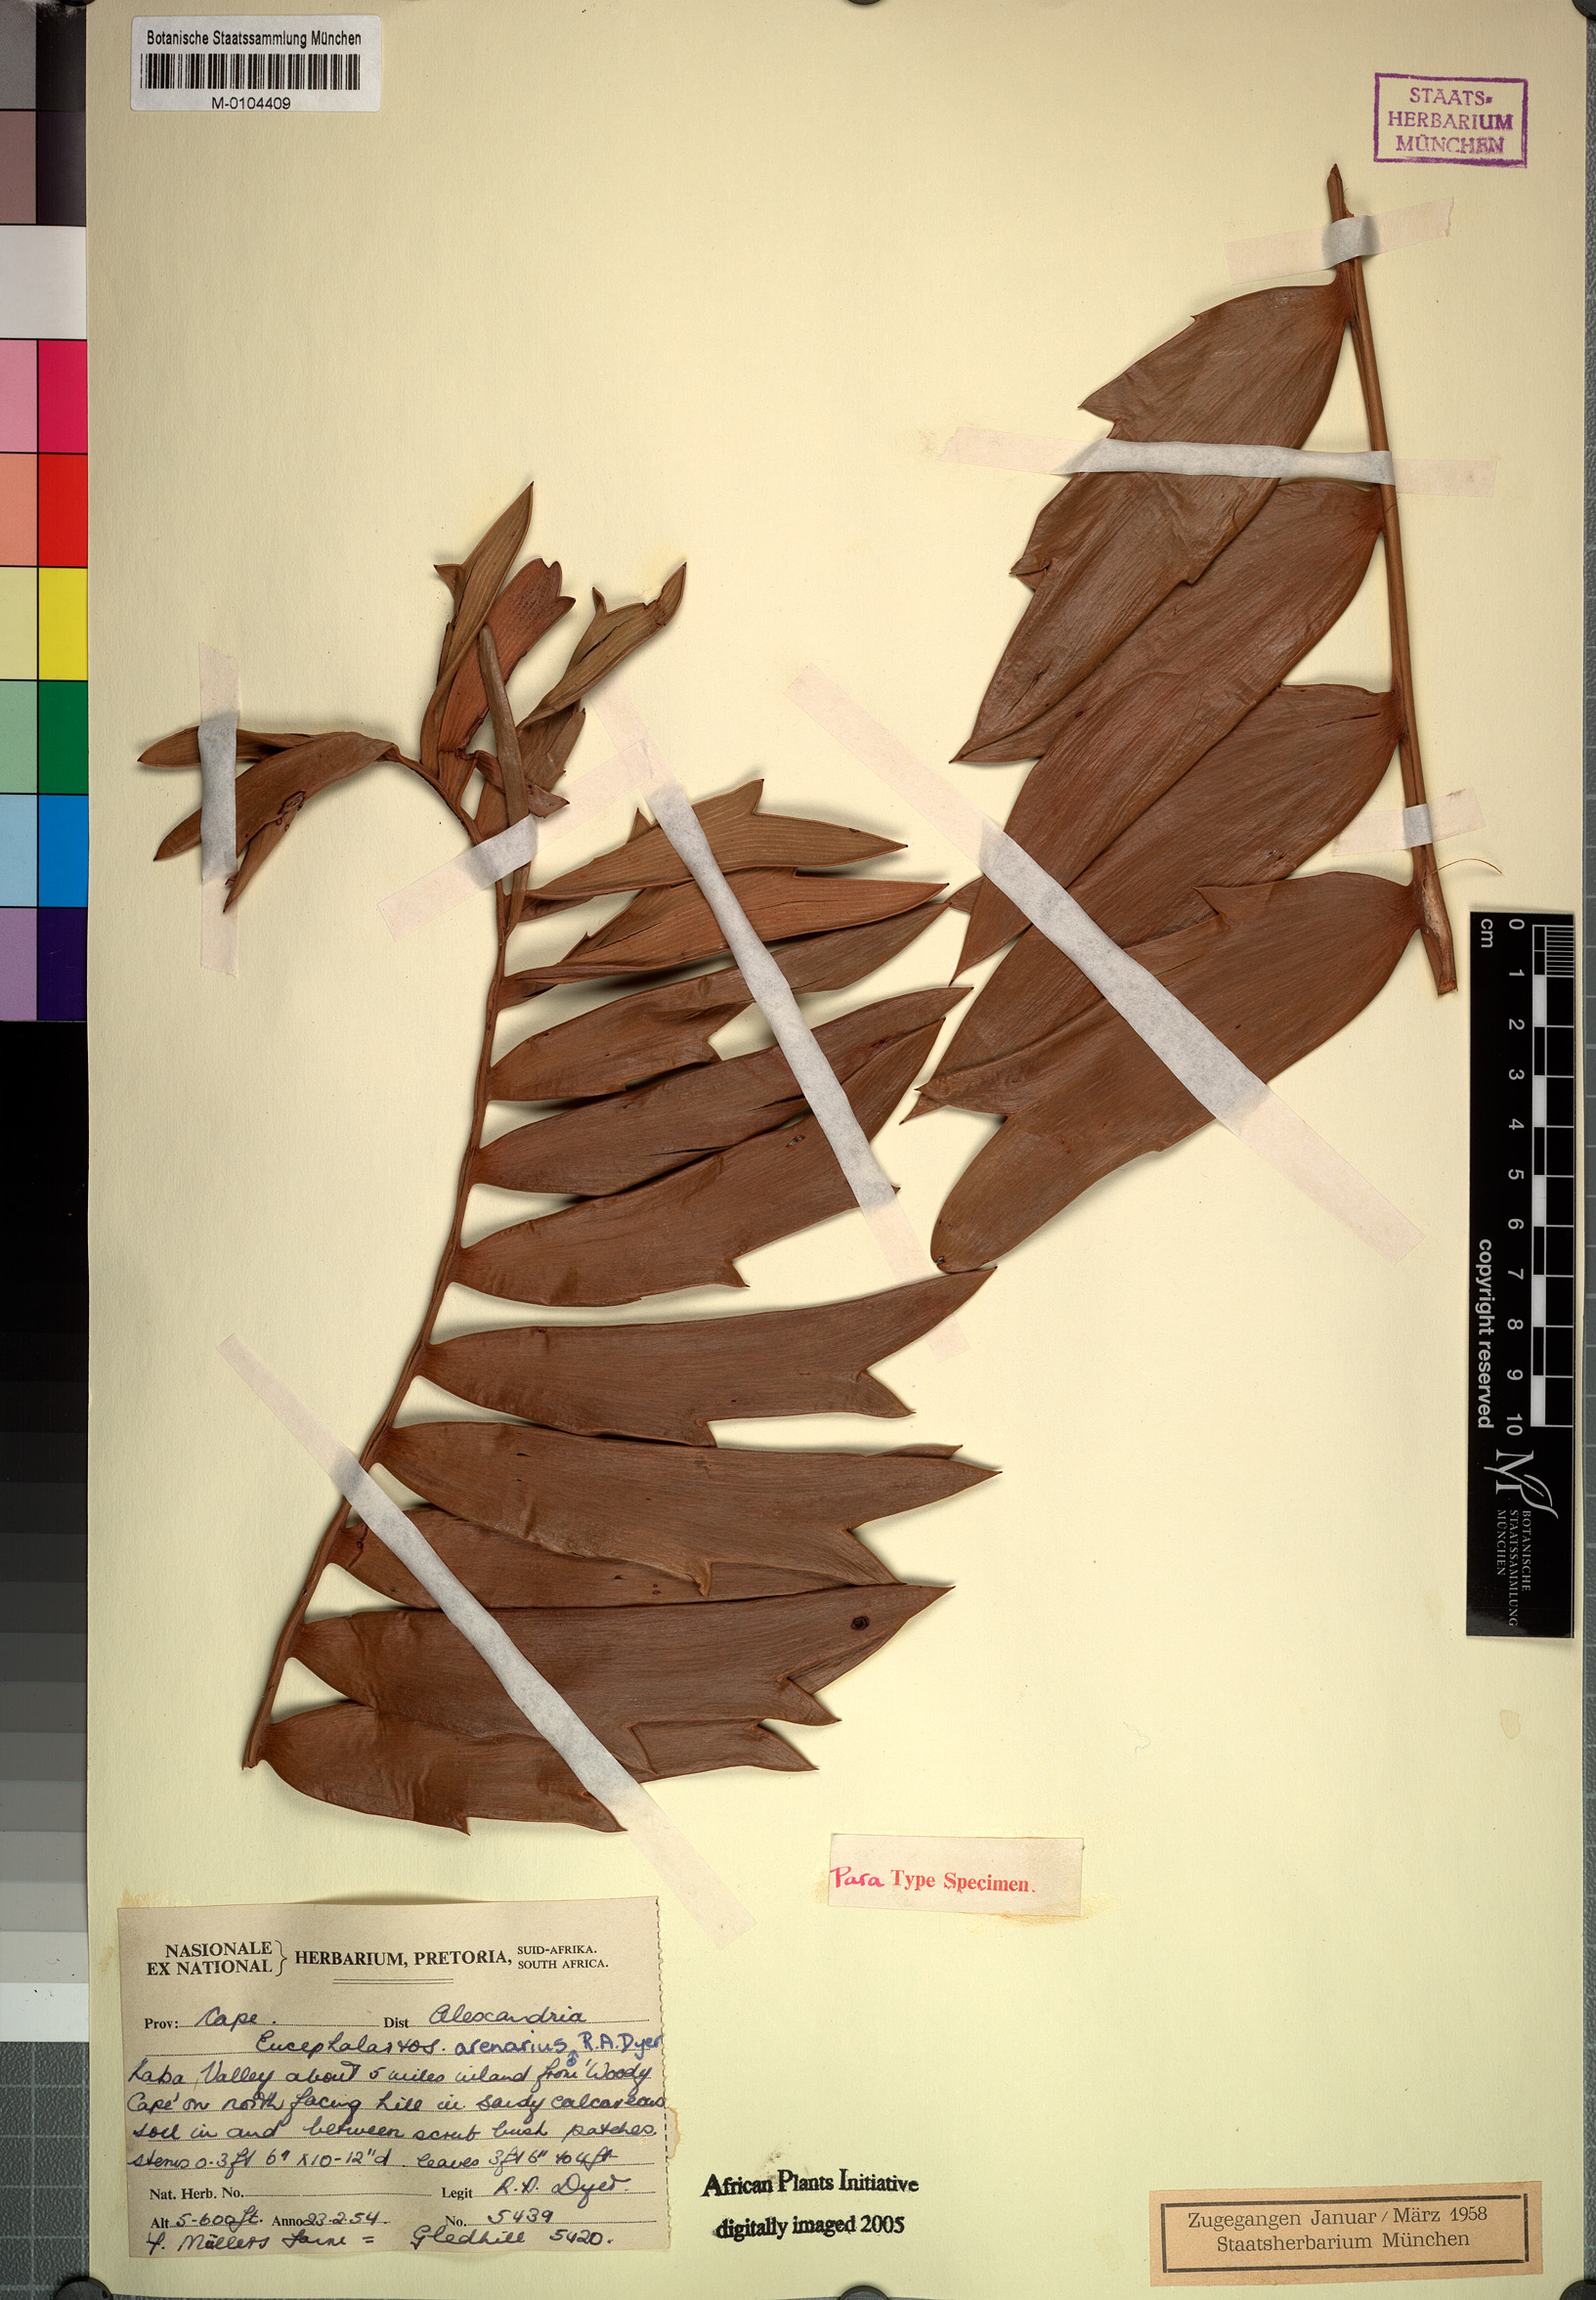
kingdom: Plantae
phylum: Tracheophyta
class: Cycadopsida
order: Cycadales
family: Zamiaceae
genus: Encephalartos
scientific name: Encephalartos arenarius
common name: Alexandria cycad
